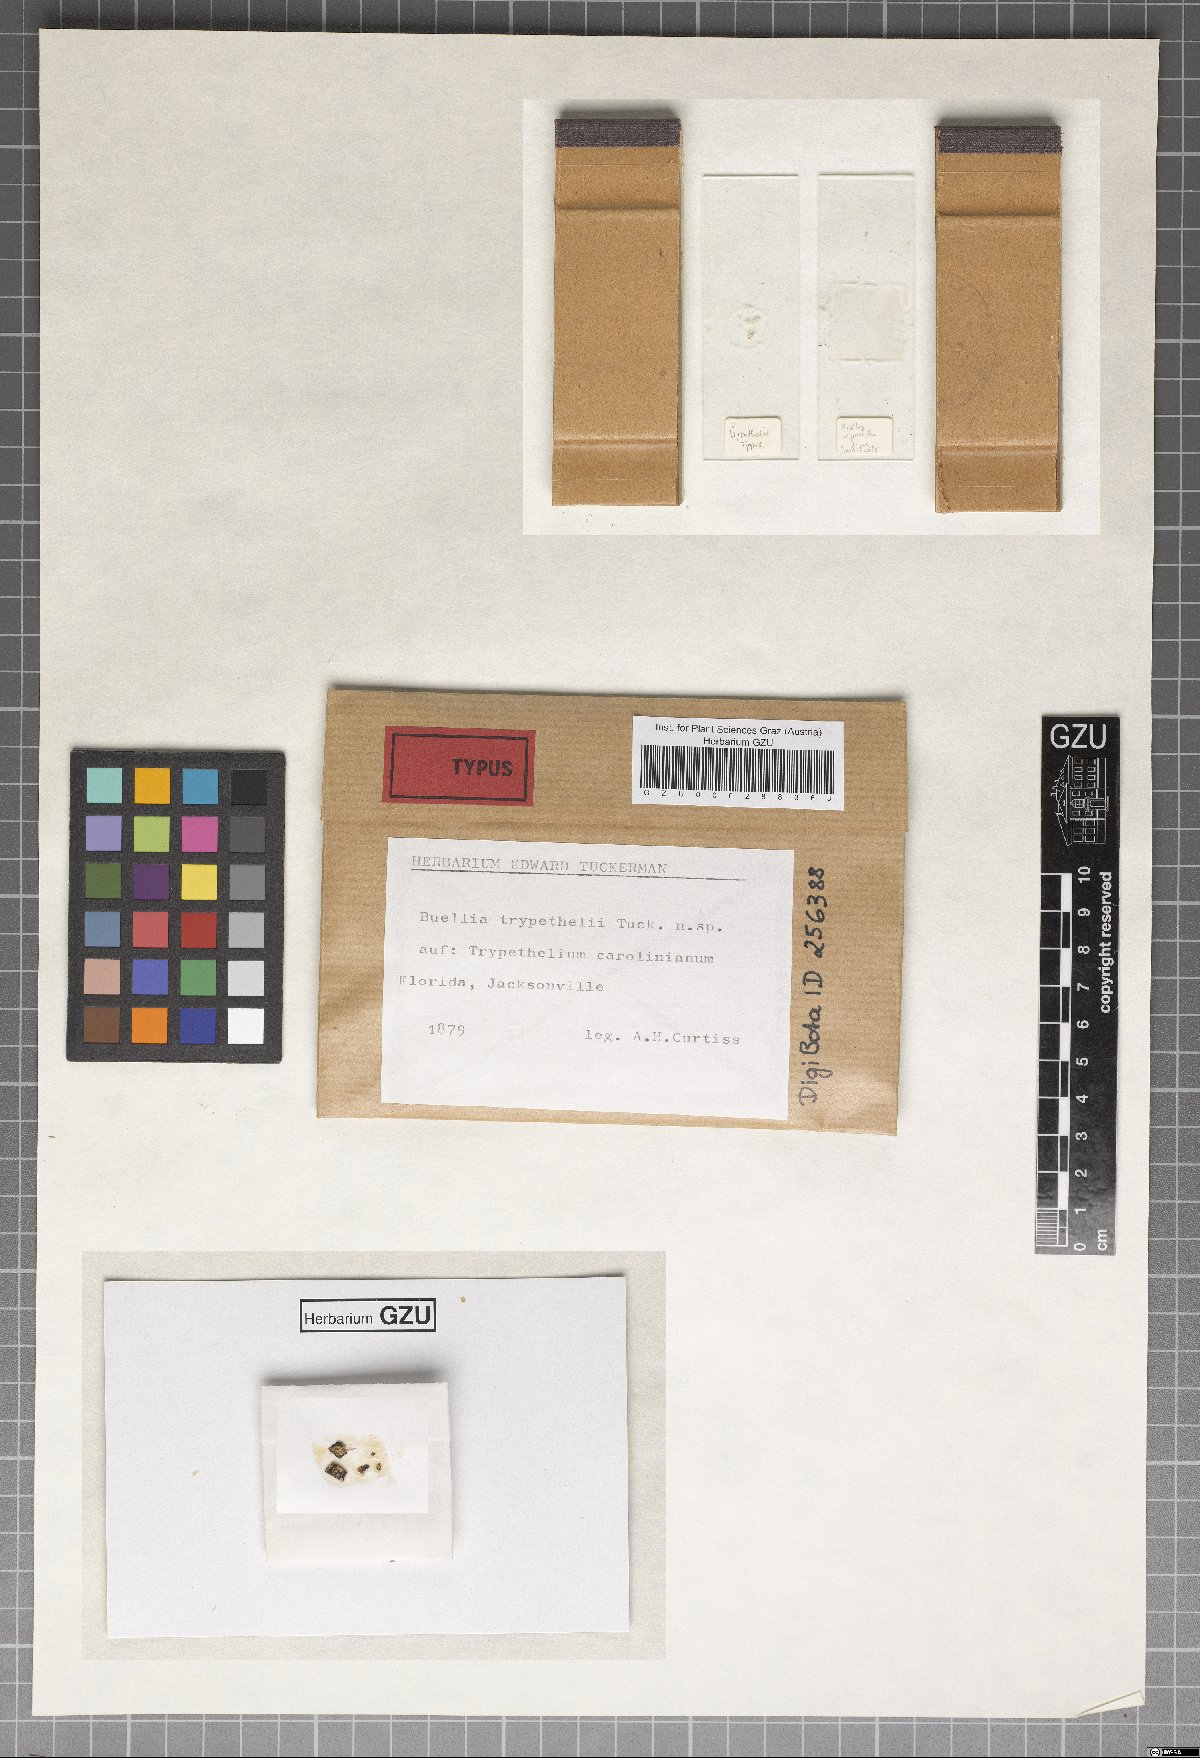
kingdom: Fungi
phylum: Ascomycota
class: Dothideomycetes
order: Dothideales
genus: Buelliella
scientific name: Buelliella trypethelii
